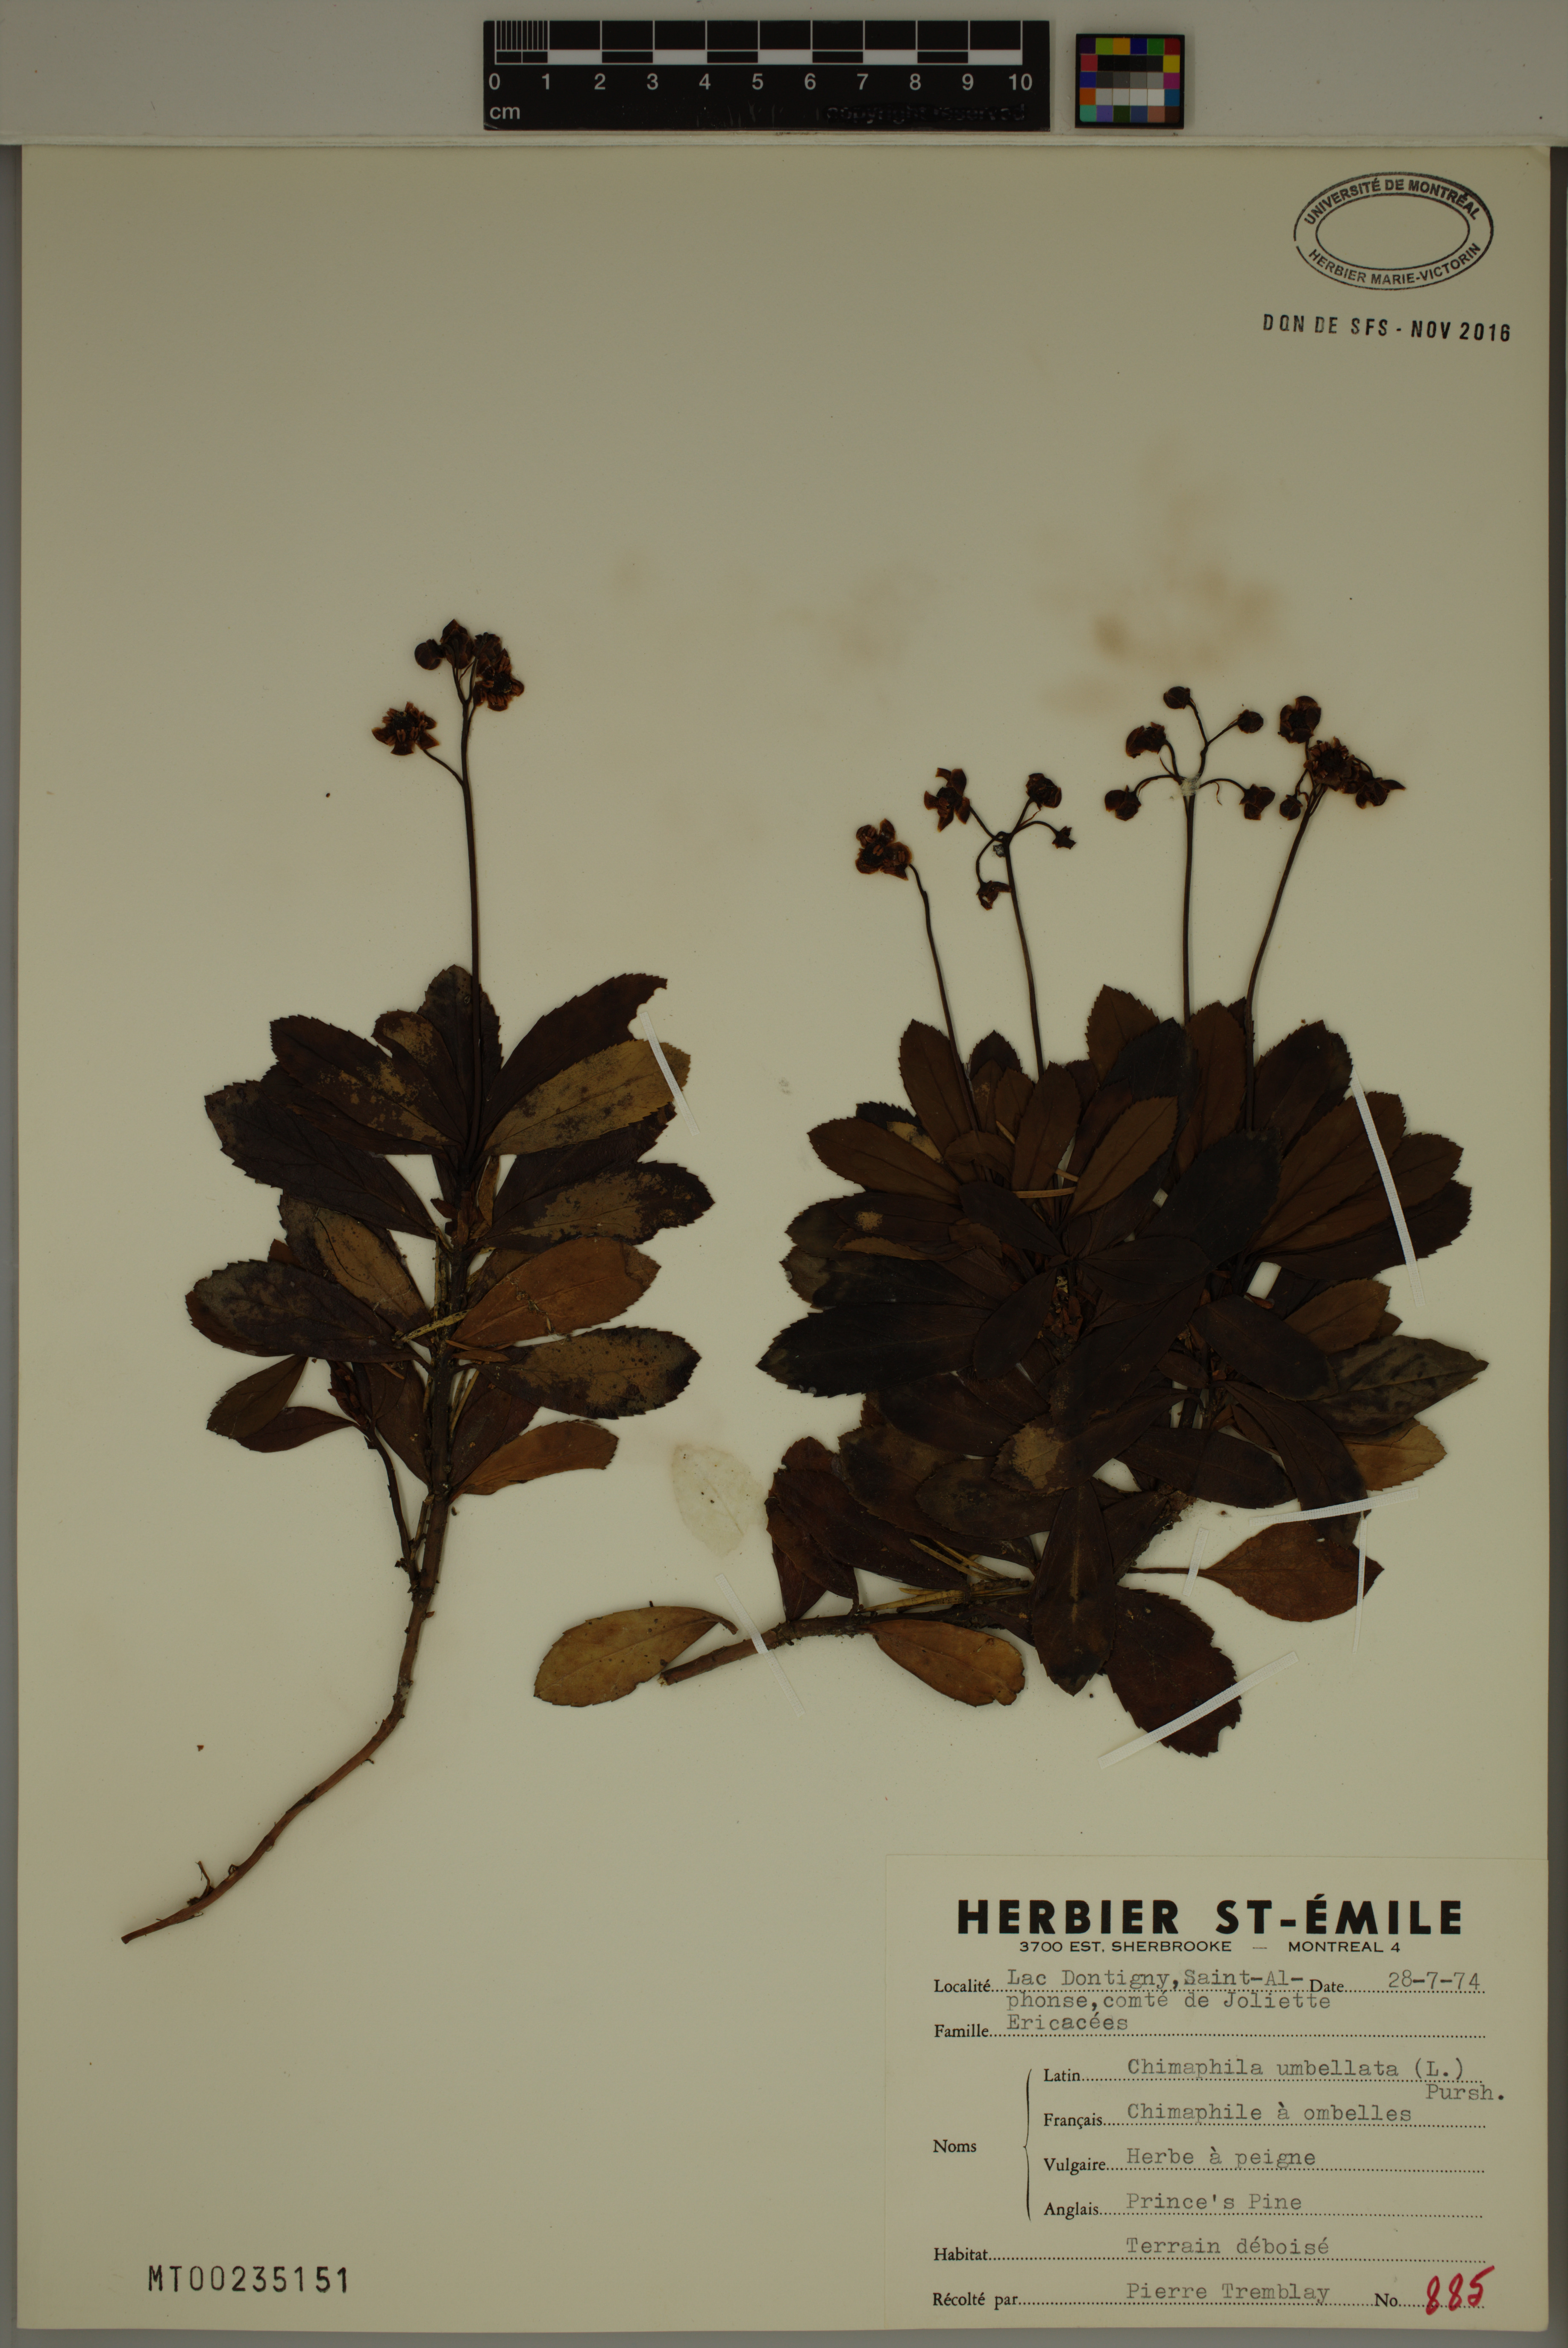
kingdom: Plantae
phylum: Tracheophyta
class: Magnoliopsida
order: Ericales
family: Ericaceae
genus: Chimaphila
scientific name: Chimaphila umbellata
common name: Pipsissewa
